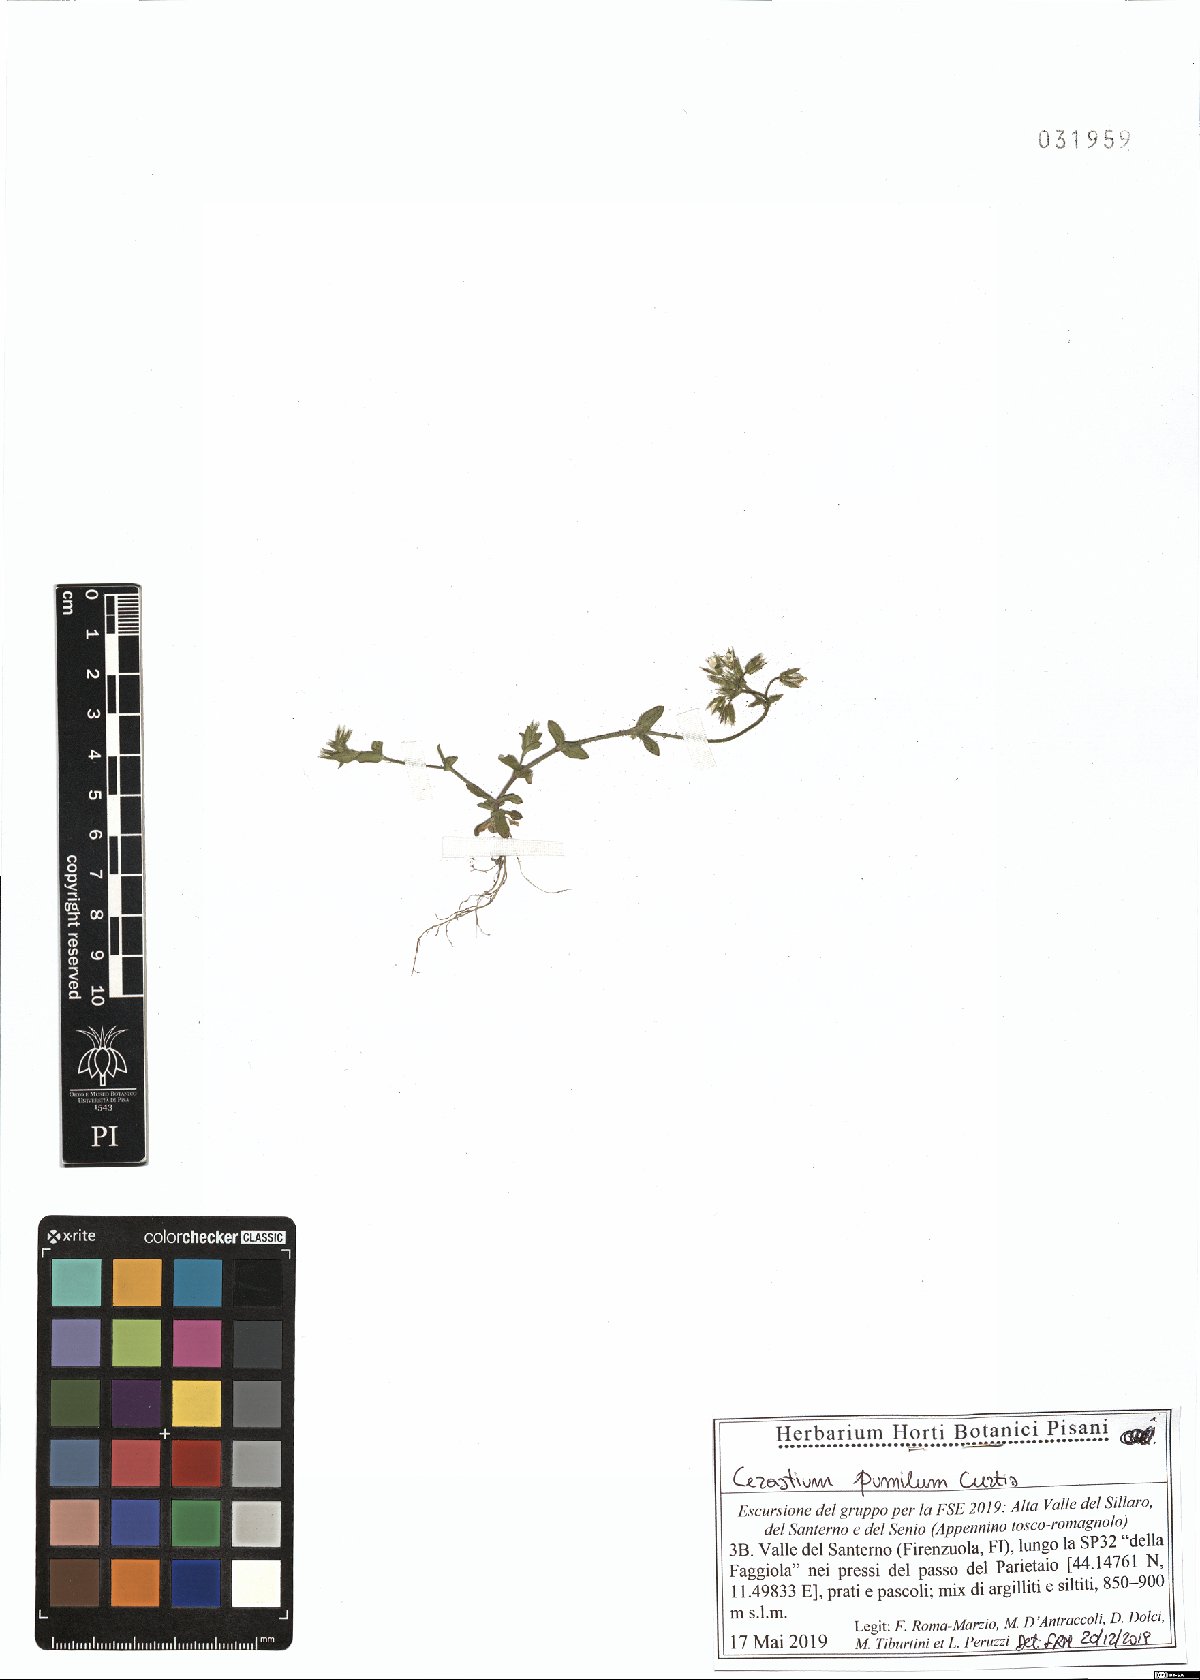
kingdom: Plantae
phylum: Tracheophyta
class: Magnoliopsida
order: Caryophyllales
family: Caryophyllaceae
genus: Cerastium
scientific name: Cerastium pumilum
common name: Dwarf mouse-ear
